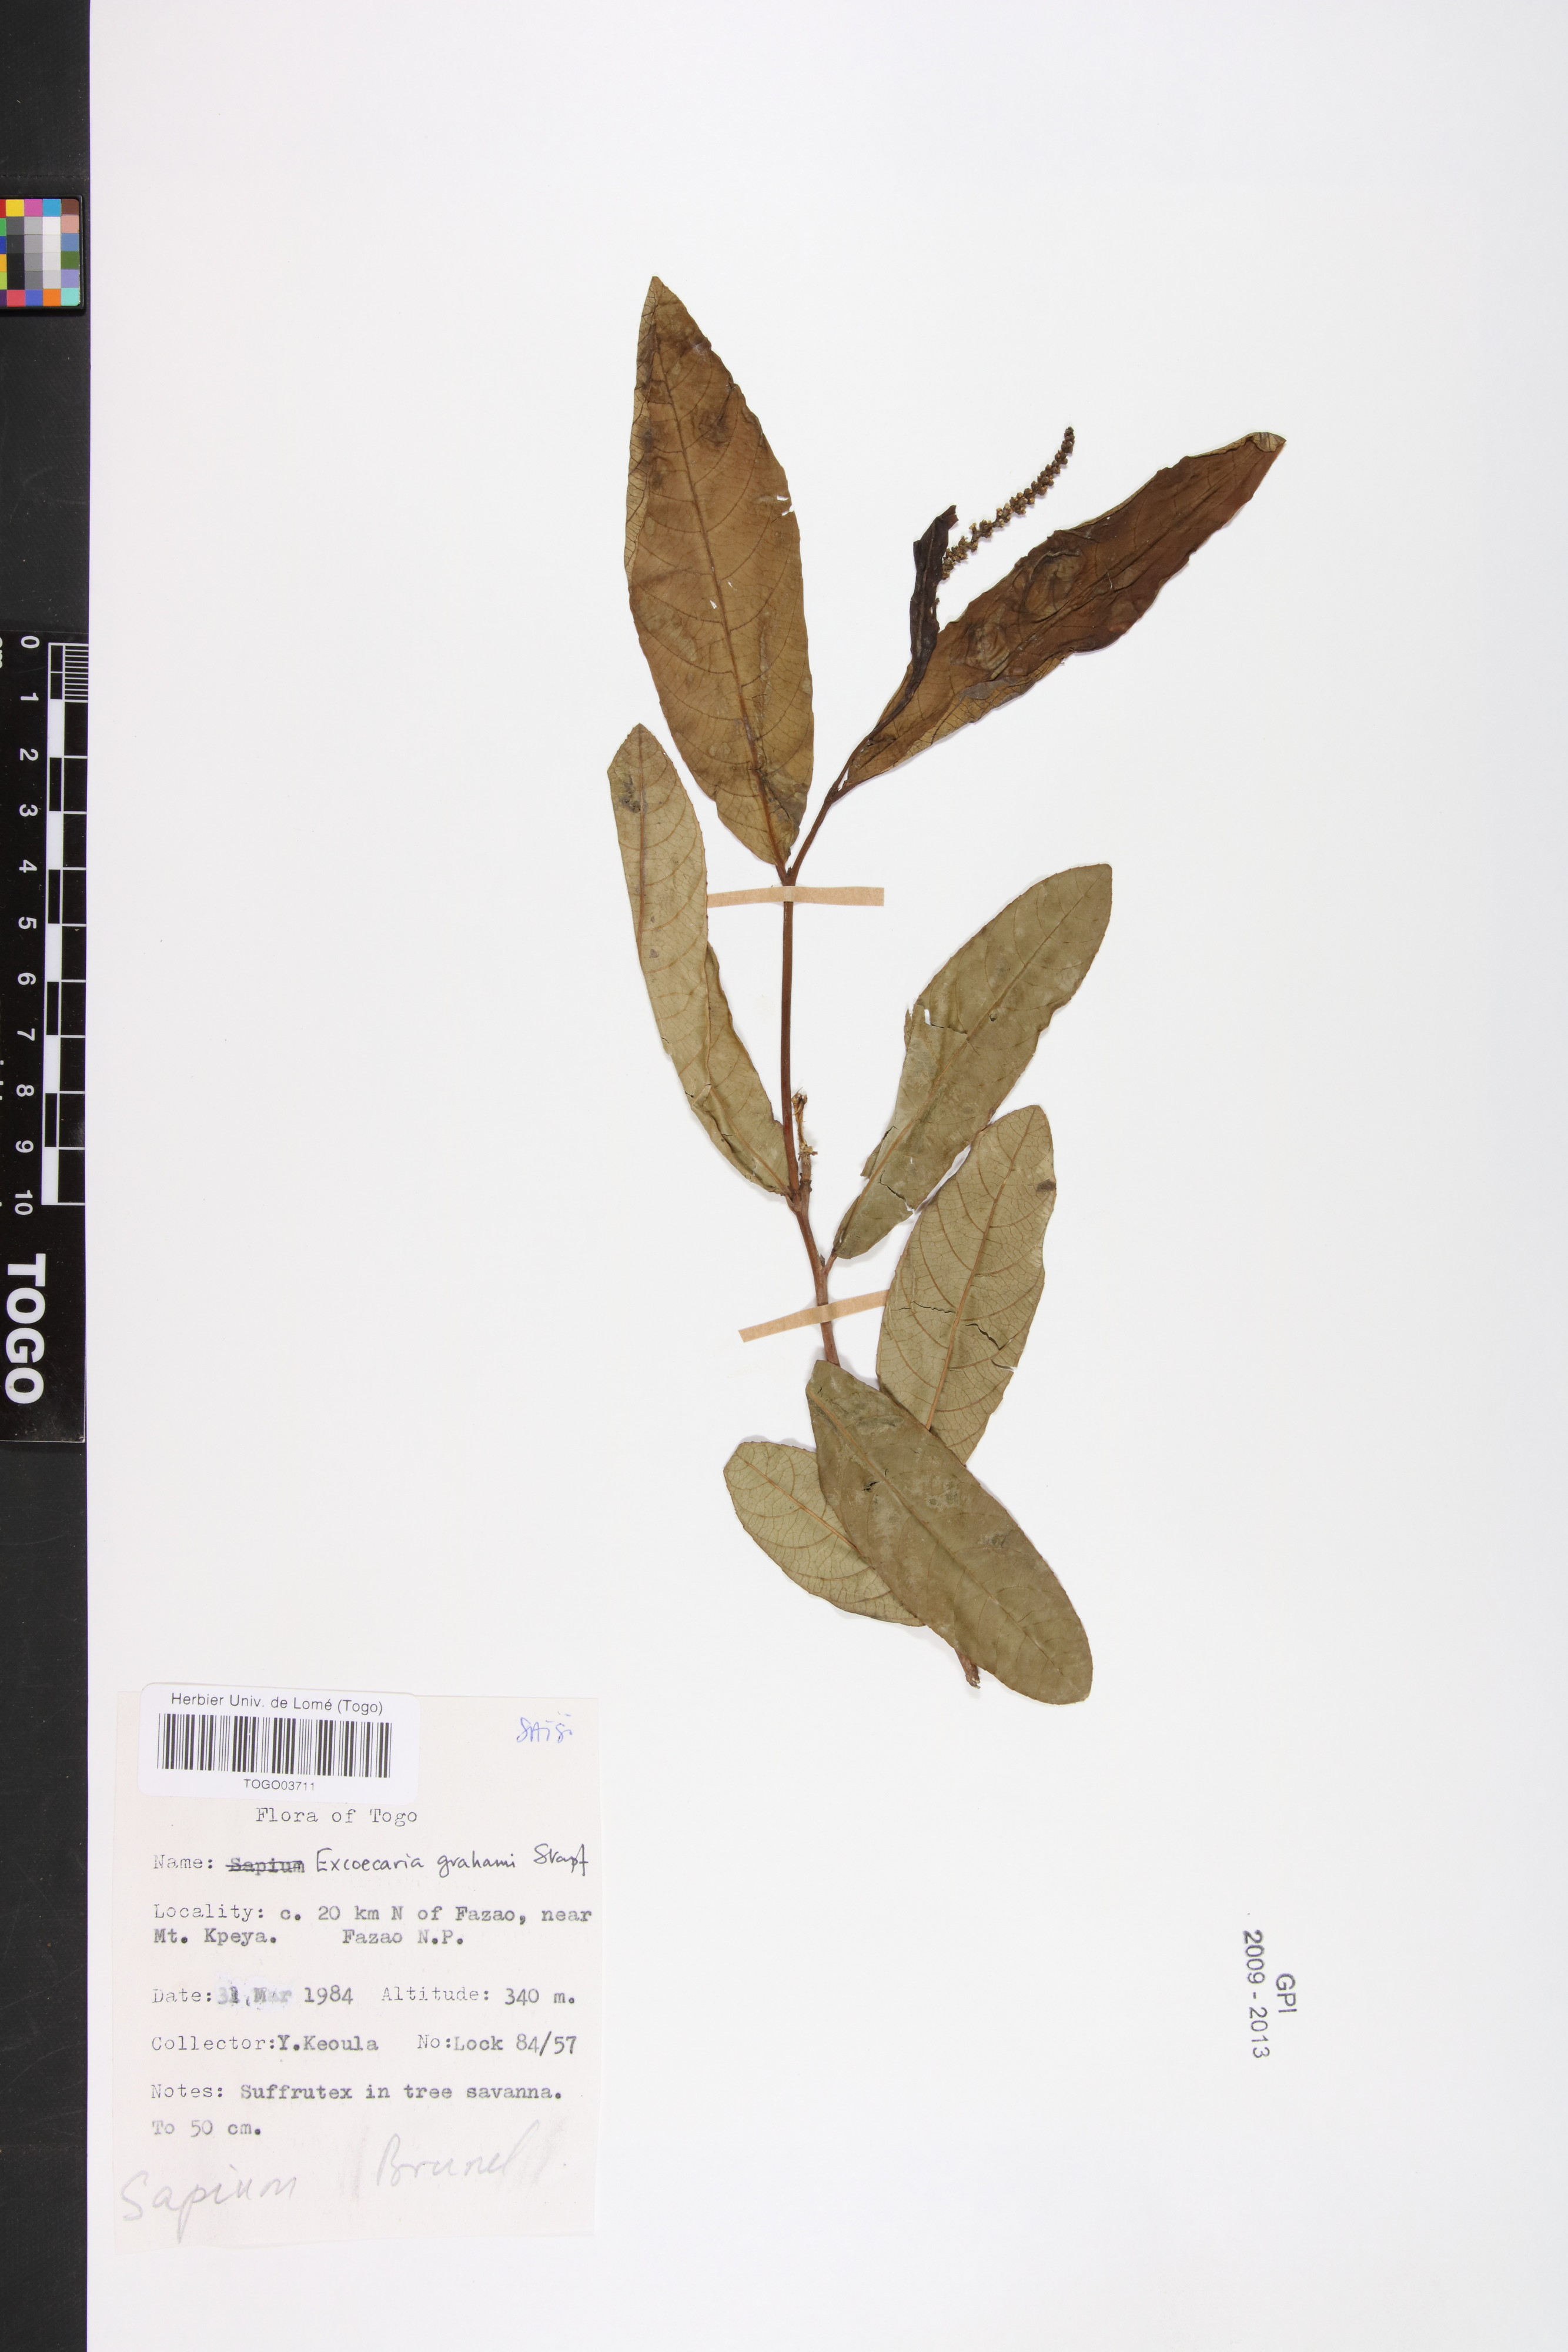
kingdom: Plantae
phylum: Tracheophyta
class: Magnoliopsida
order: Malpighiales
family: Euphorbiaceae
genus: Excoecaria
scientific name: Excoecaria grahamii
